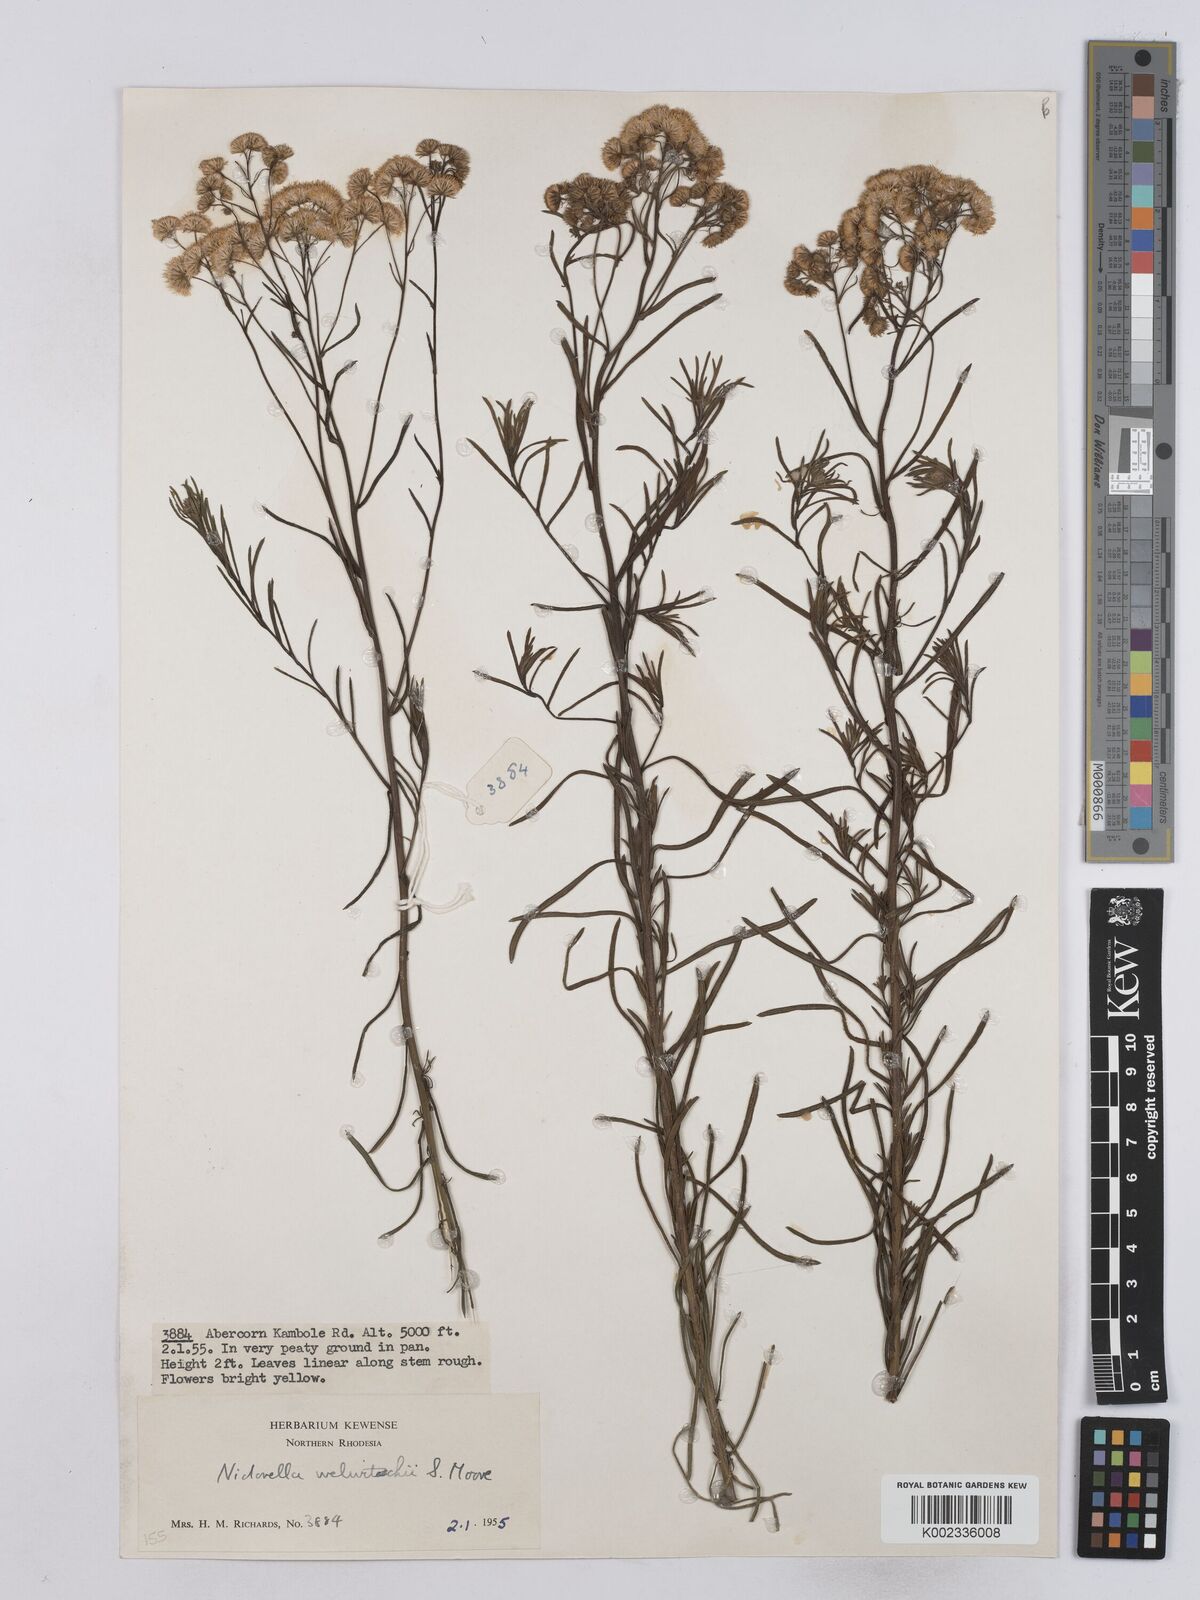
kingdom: Plantae
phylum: Tracheophyta
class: Magnoliopsida
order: Asterales
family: Asteraceae
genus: Nidorella
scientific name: Nidorella welwitschii
